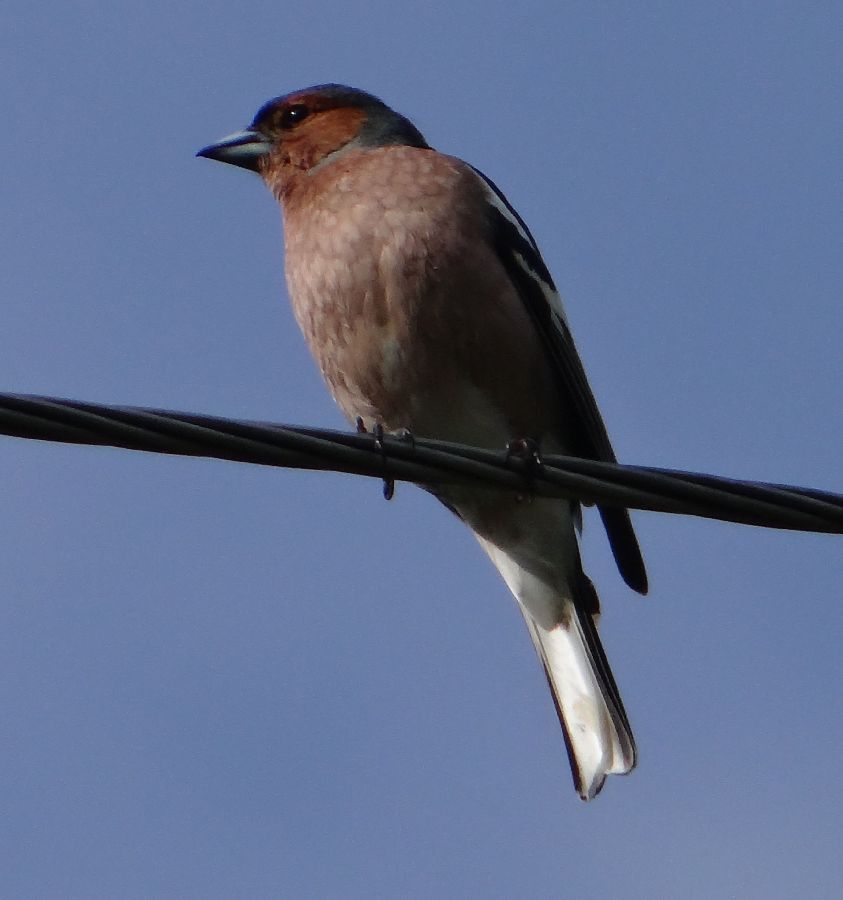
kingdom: Animalia
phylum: Chordata
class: Aves
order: Passeriformes
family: Fringillidae
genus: Fringilla
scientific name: Fringilla coelebs
